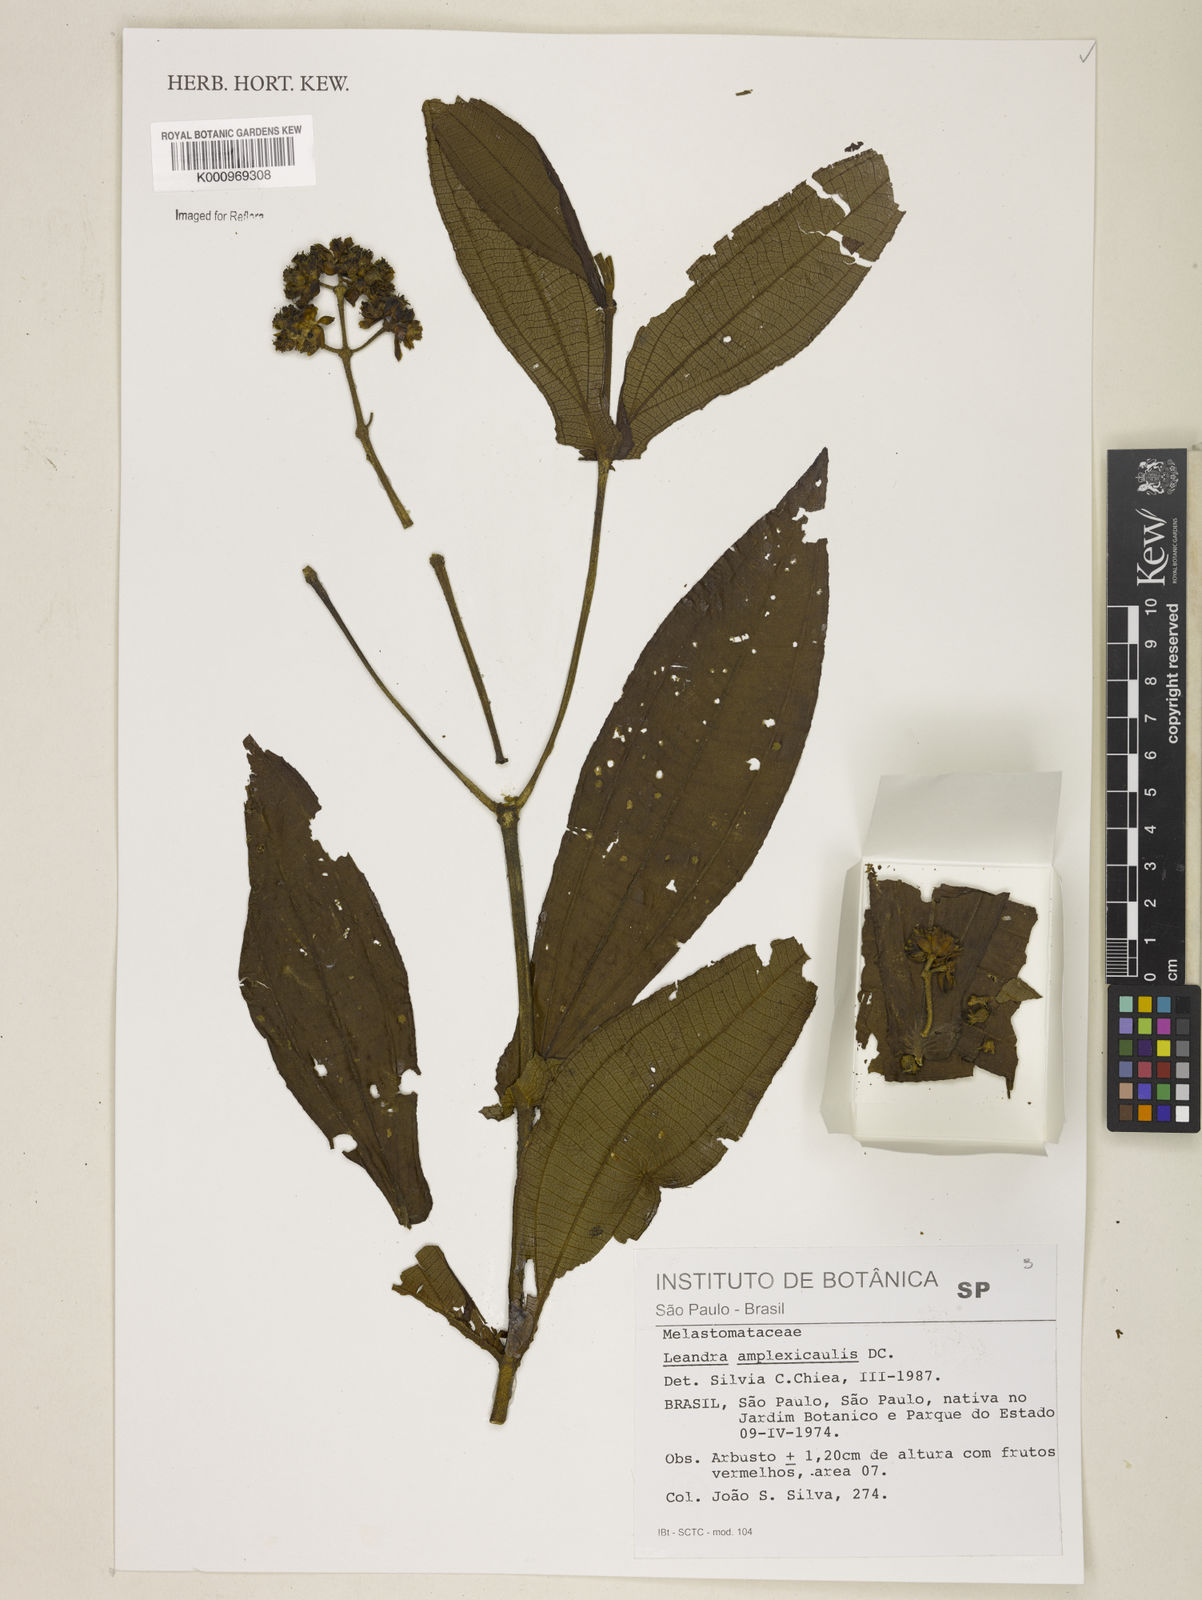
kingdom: Plantae
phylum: Tracheophyta
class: Magnoliopsida
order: Myrtales
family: Melastomataceae
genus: Miconia
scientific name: Miconia pectinata
